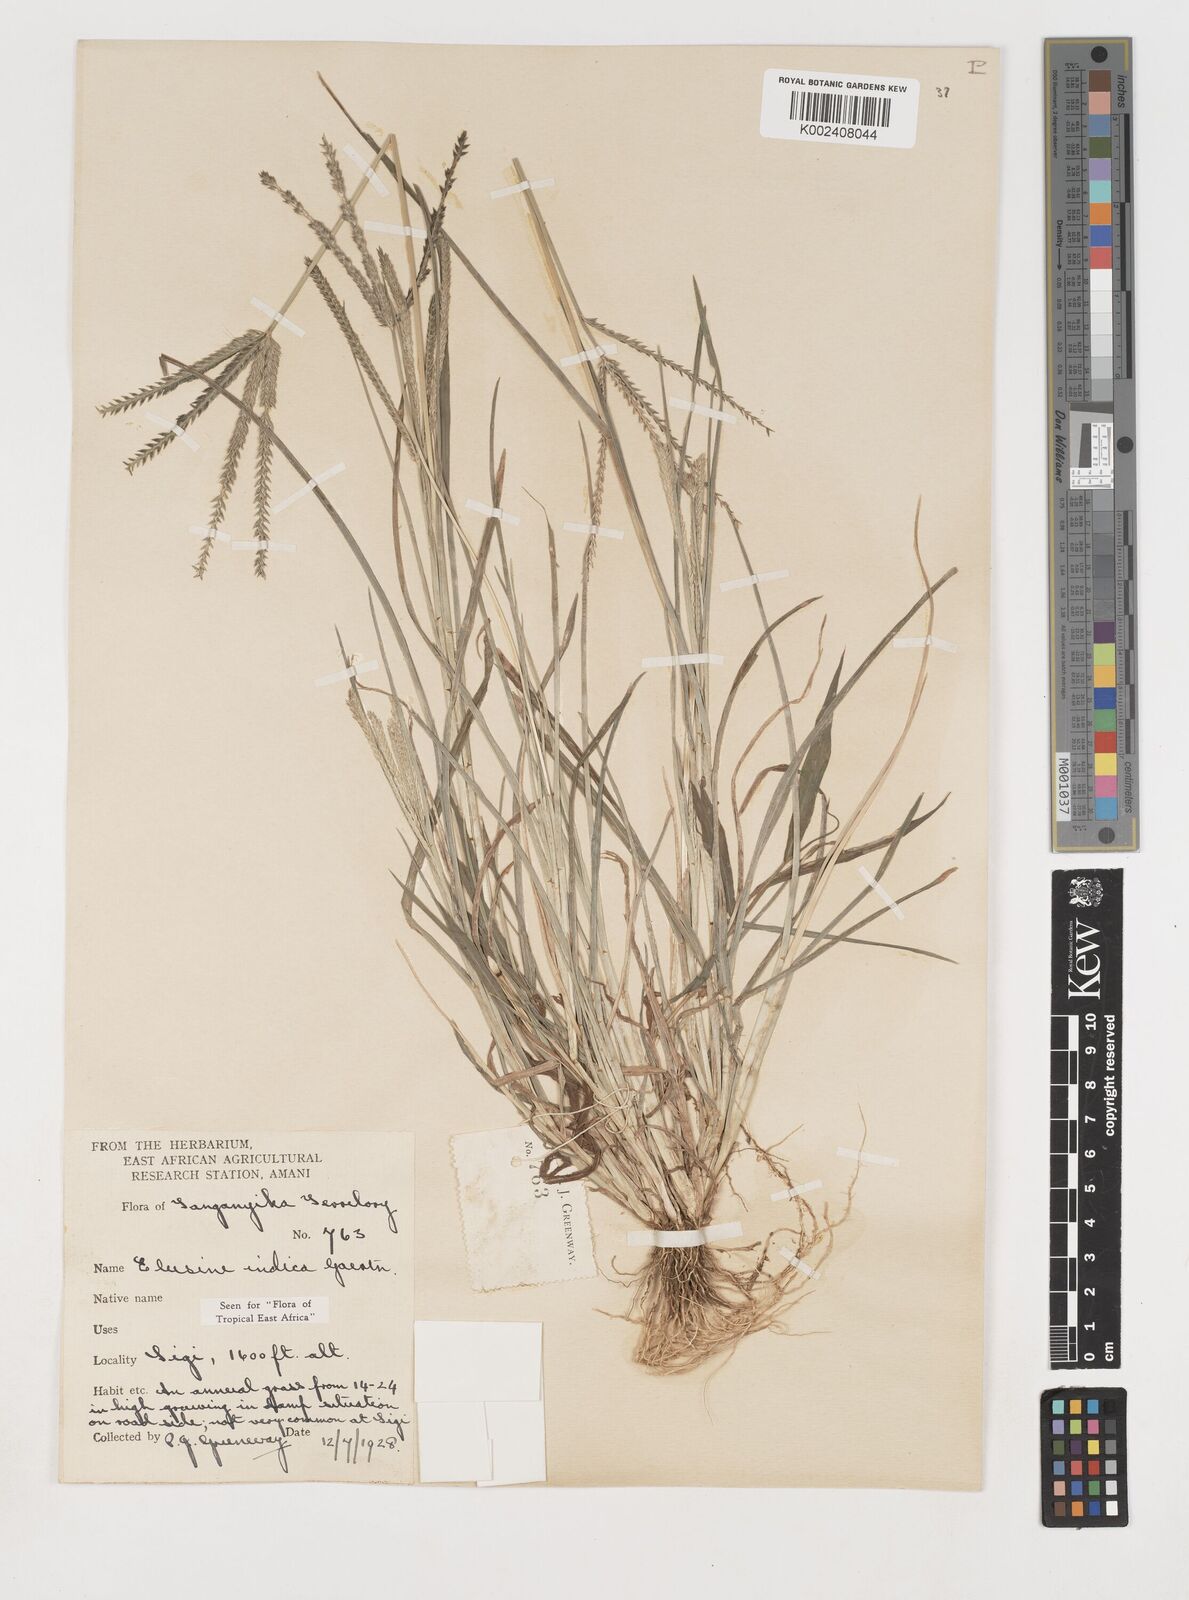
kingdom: Plantae
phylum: Tracheophyta
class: Liliopsida
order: Poales
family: Poaceae
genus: Eleusine
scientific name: Eleusine indica
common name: Yard-grass
